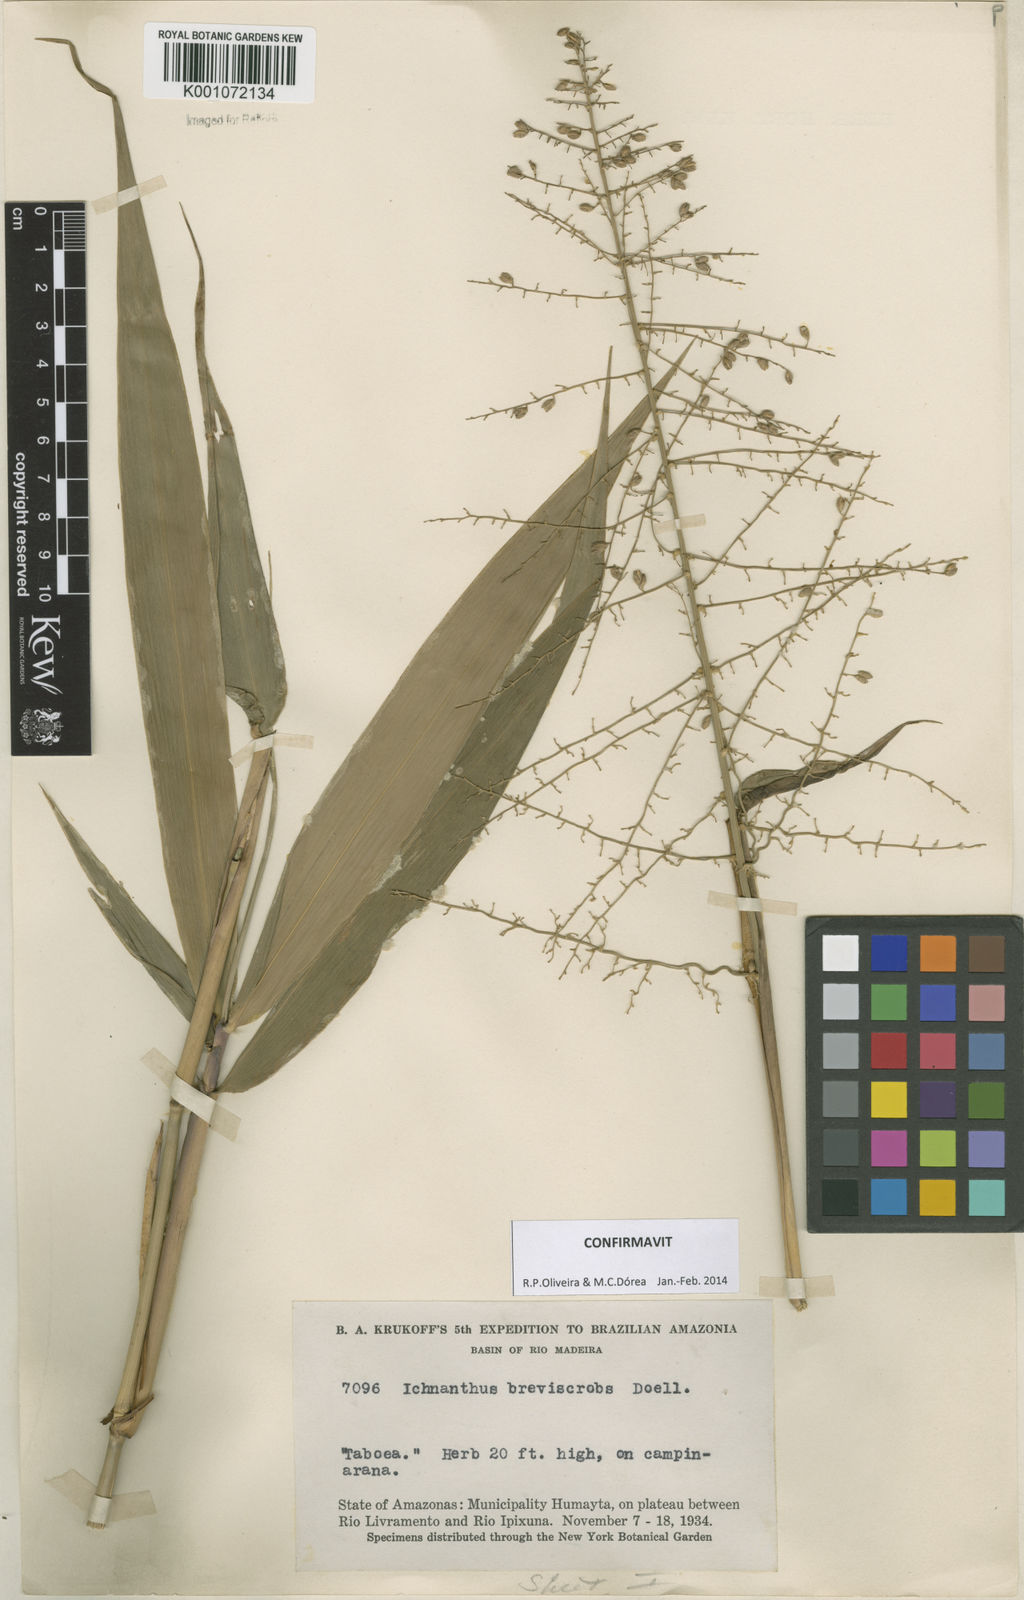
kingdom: Plantae
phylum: Tracheophyta
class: Liliopsida
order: Poales
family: Poaceae
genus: Ichnanthus
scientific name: Ichnanthus
